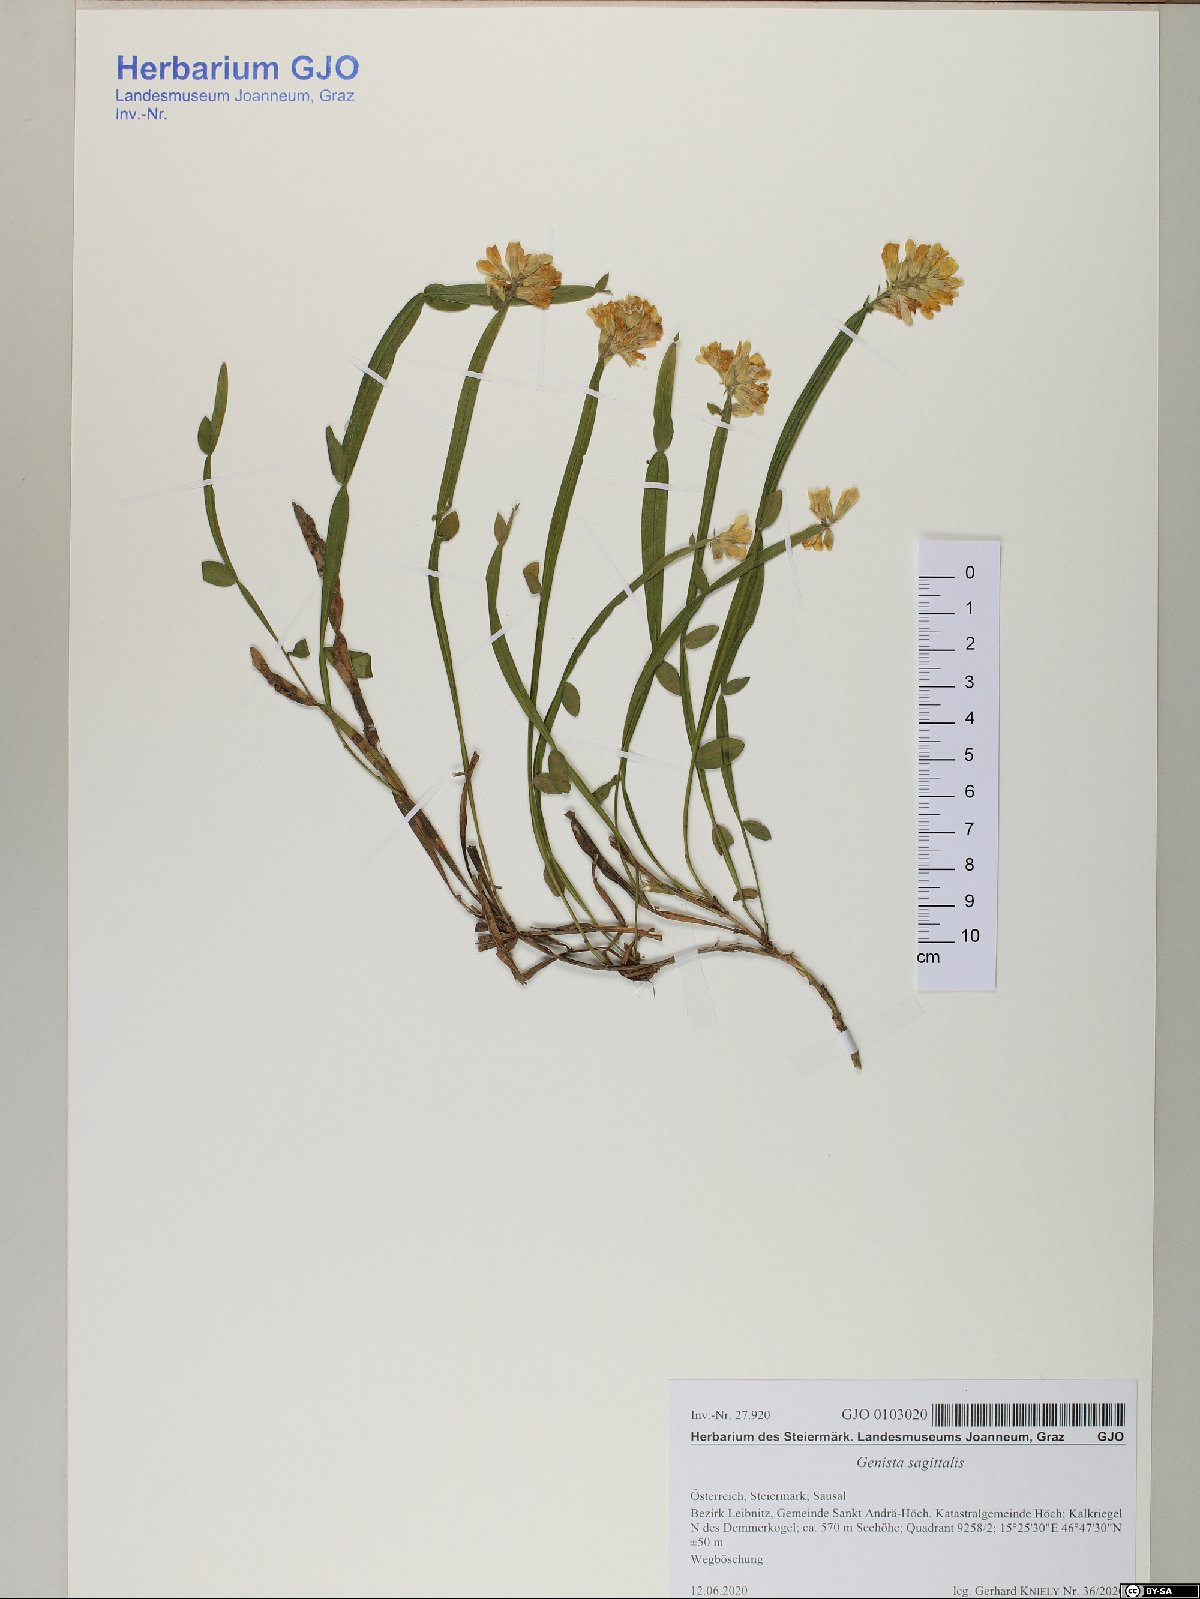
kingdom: Plantae
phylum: Tracheophyta
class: Magnoliopsida
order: Fabales
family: Fabaceae
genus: Genista
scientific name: Genista sagittalis
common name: Winged greenweed
